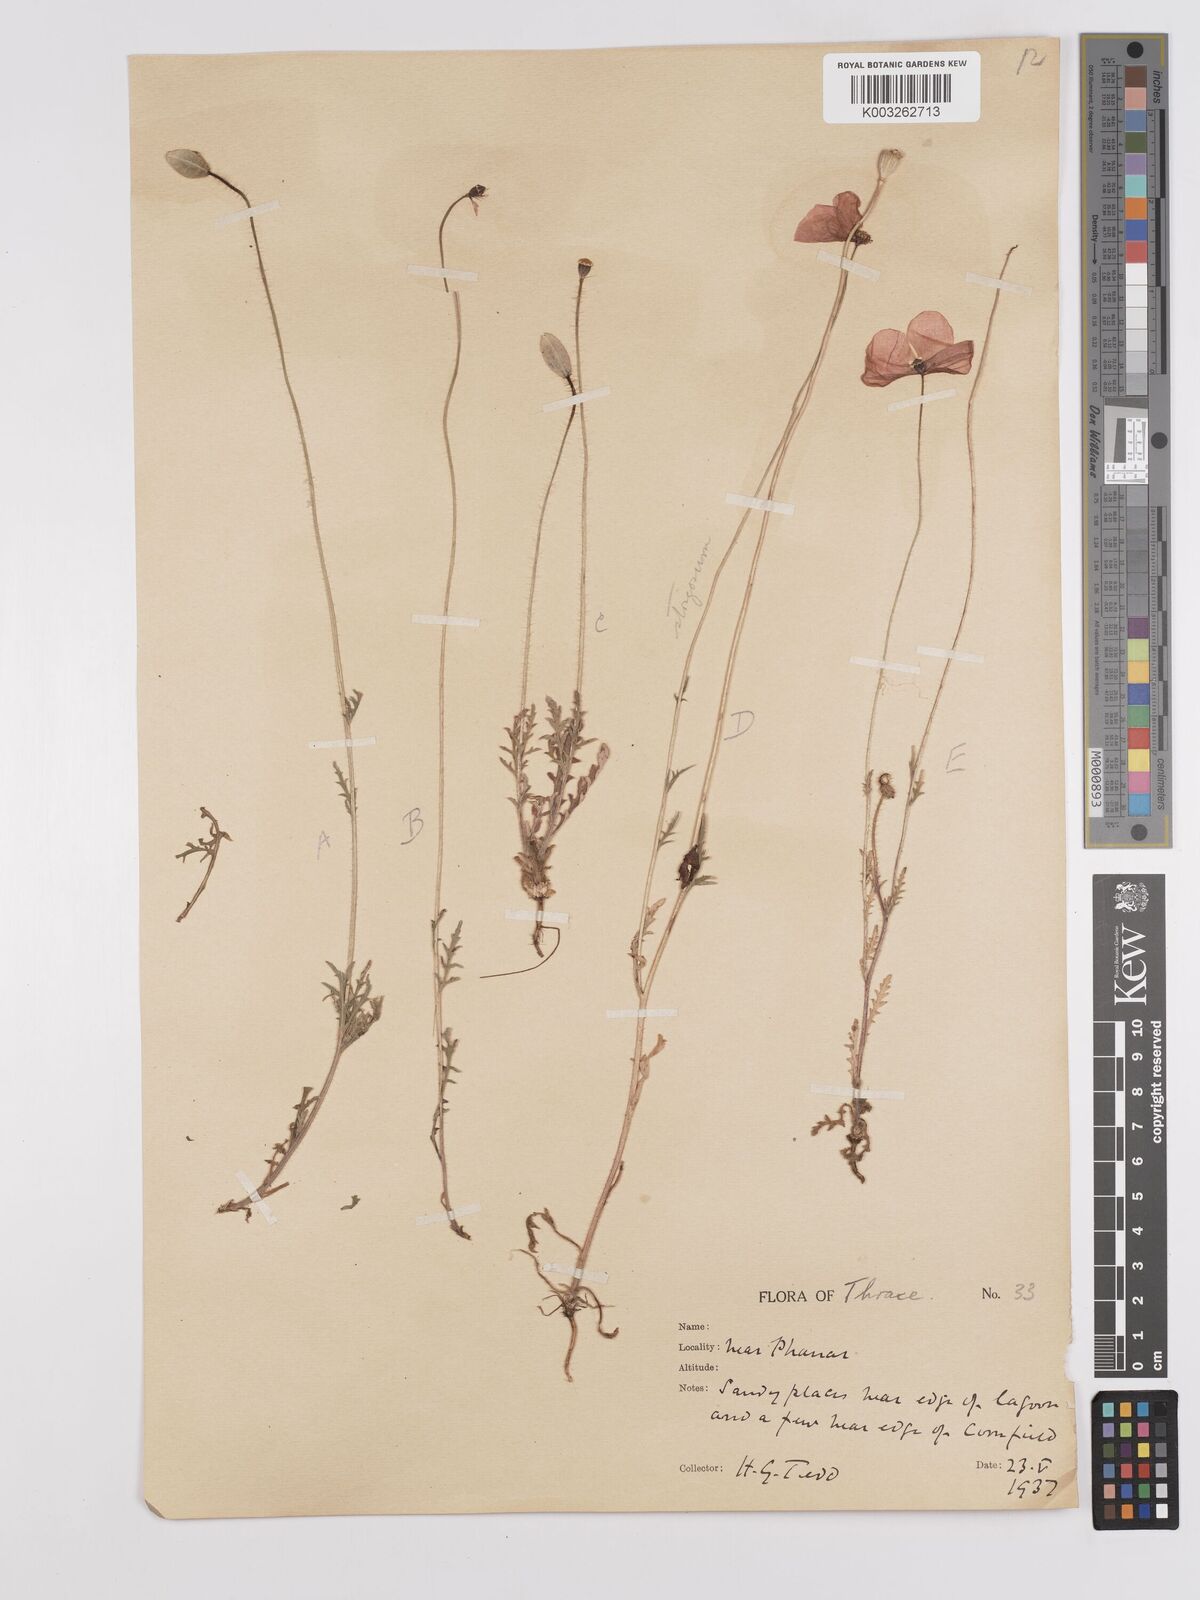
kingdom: Plantae
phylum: Tracheophyta
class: Magnoliopsida
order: Ranunculales
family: Papaveraceae
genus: Papaver
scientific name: Papaver
